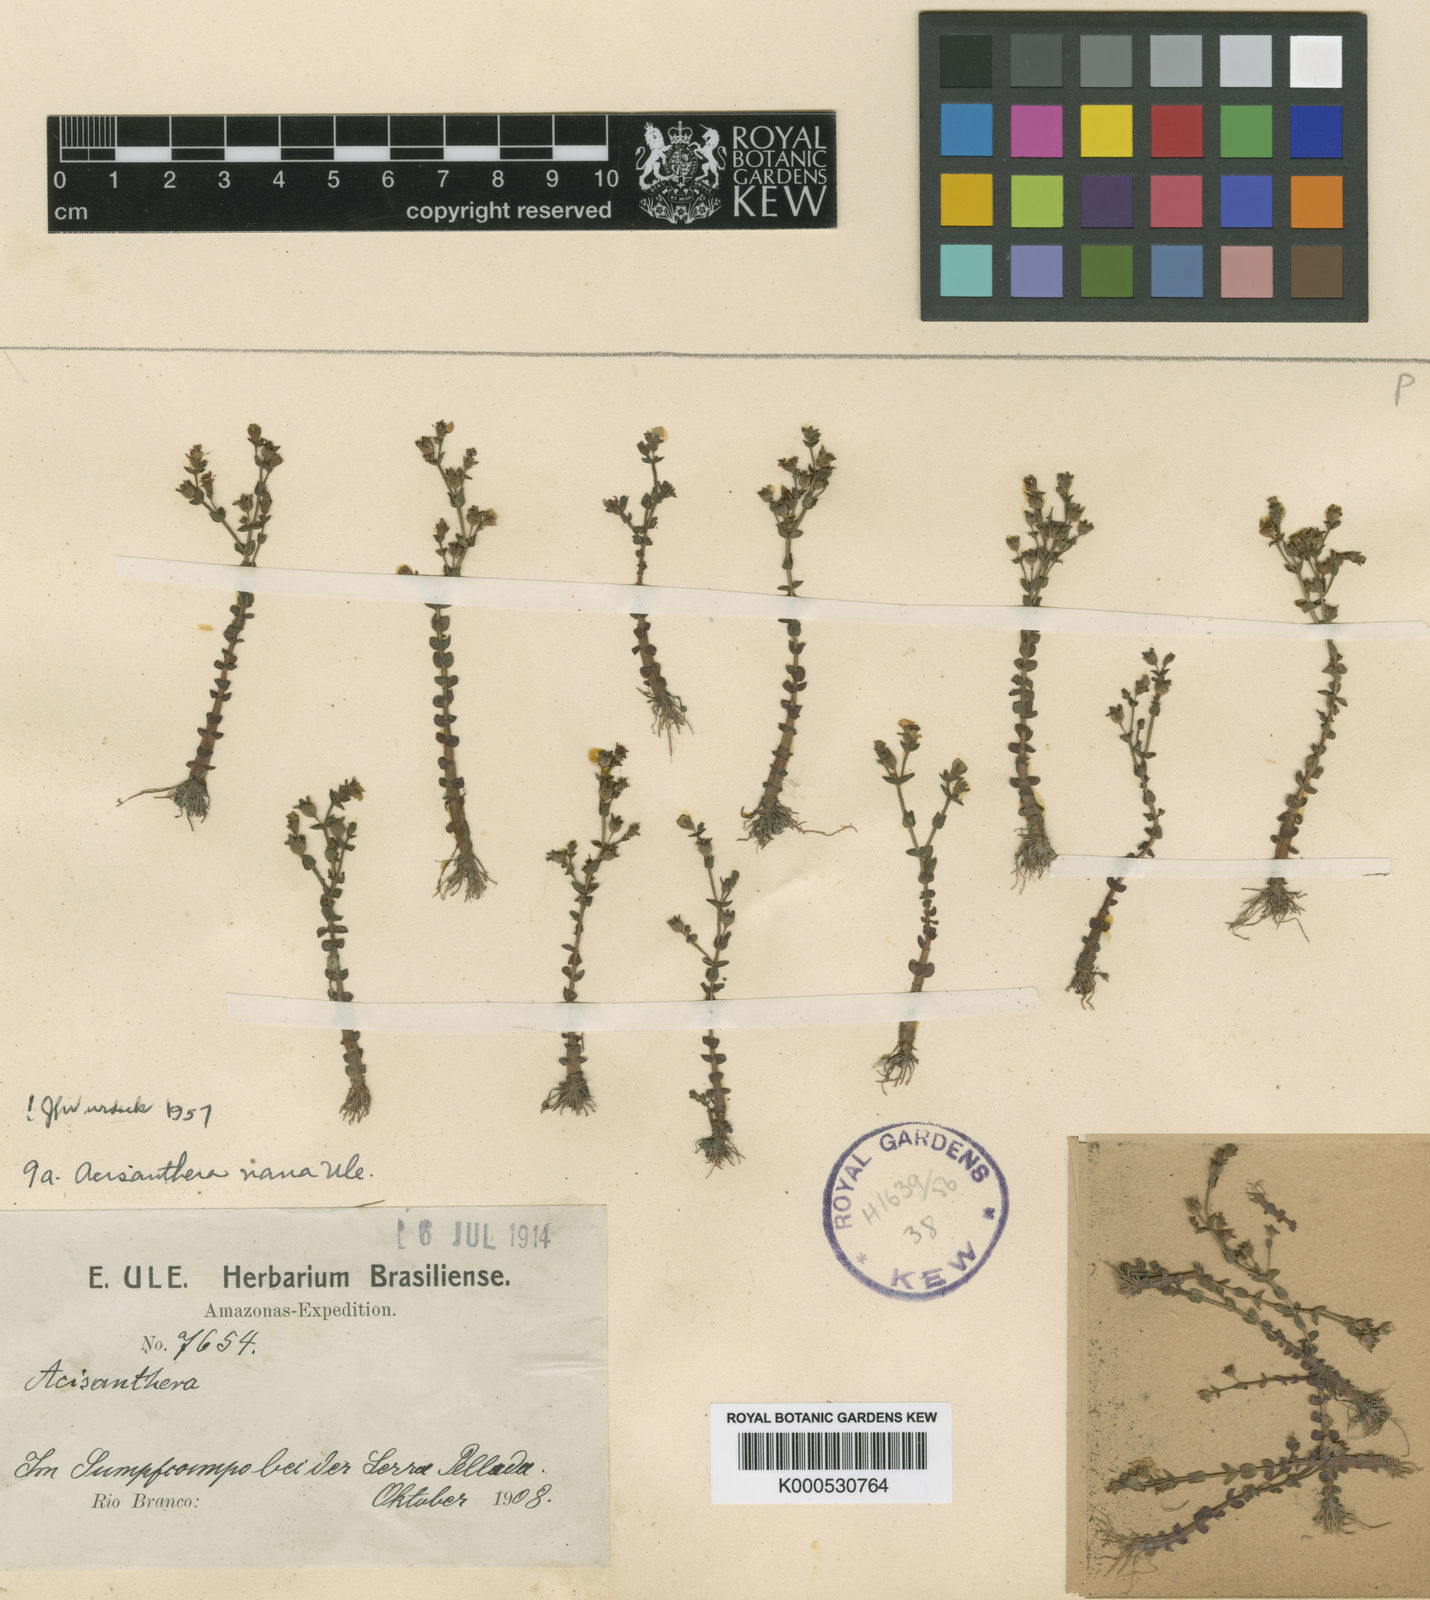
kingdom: Plantae
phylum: Tracheophyta
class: Magnoliopsida
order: Myrtales
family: Melastomataceae
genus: Noterophila
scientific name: Noterophila nana
